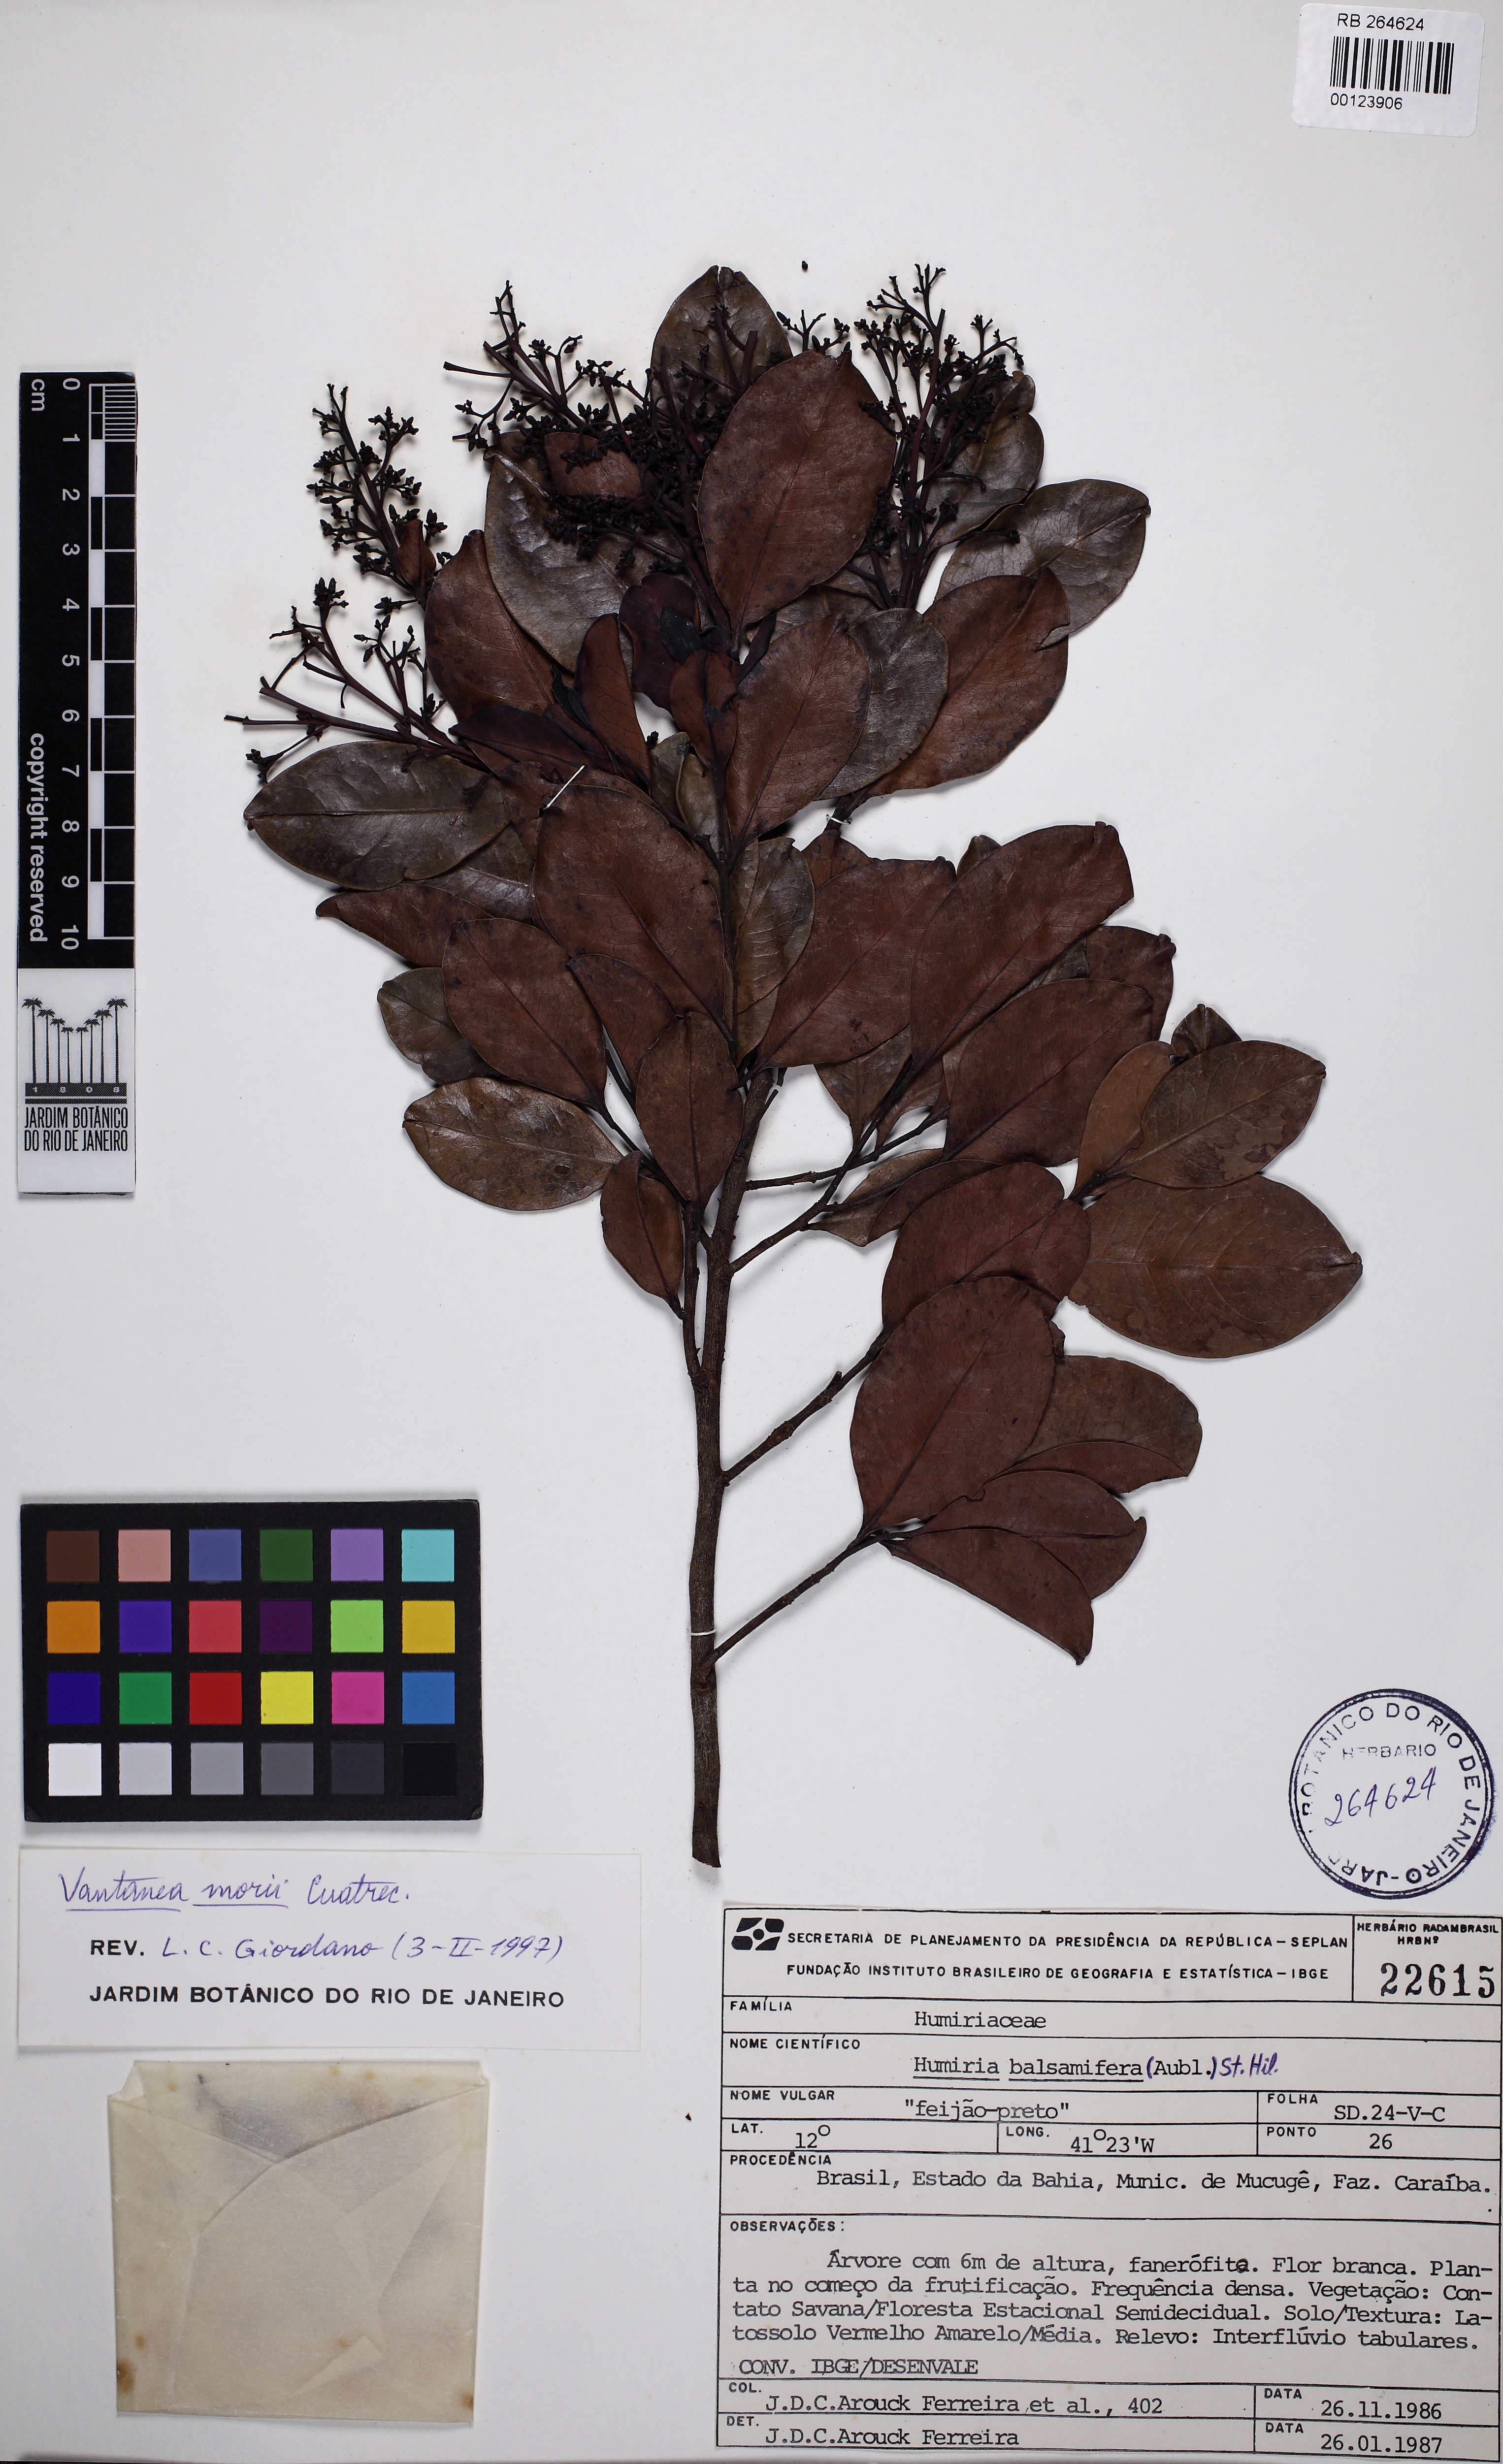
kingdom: Plantae
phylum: Tracheophyta
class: Magnoliopsida
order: Malpighiales
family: Humiriaceae
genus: Vantanea
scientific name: Vantanea morii
